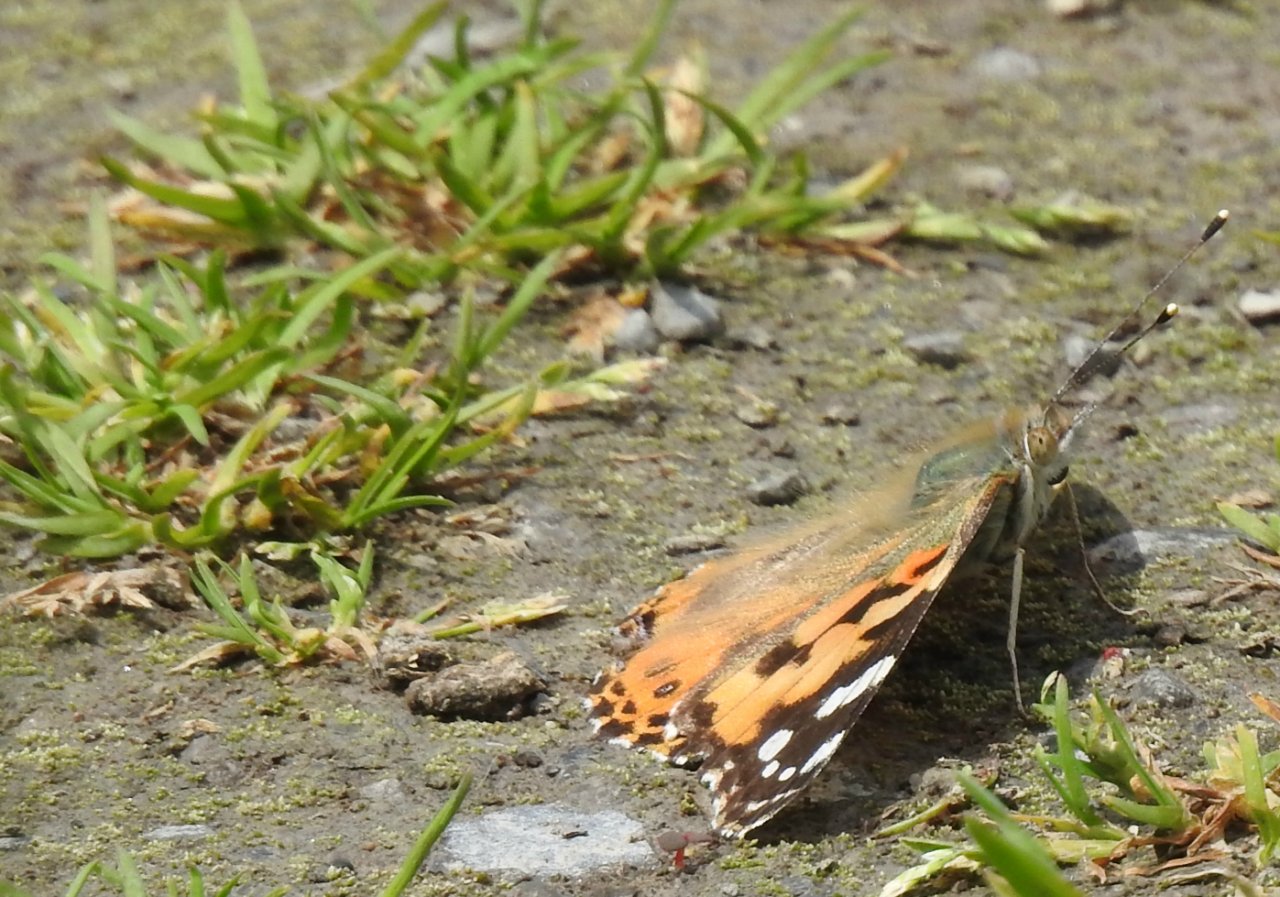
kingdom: Animalia
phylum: Arthropoda
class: Insecta
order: Lepidoptera
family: Nymphalidae
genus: Vanessa
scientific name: Vanessa cardui
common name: Painted Lady
